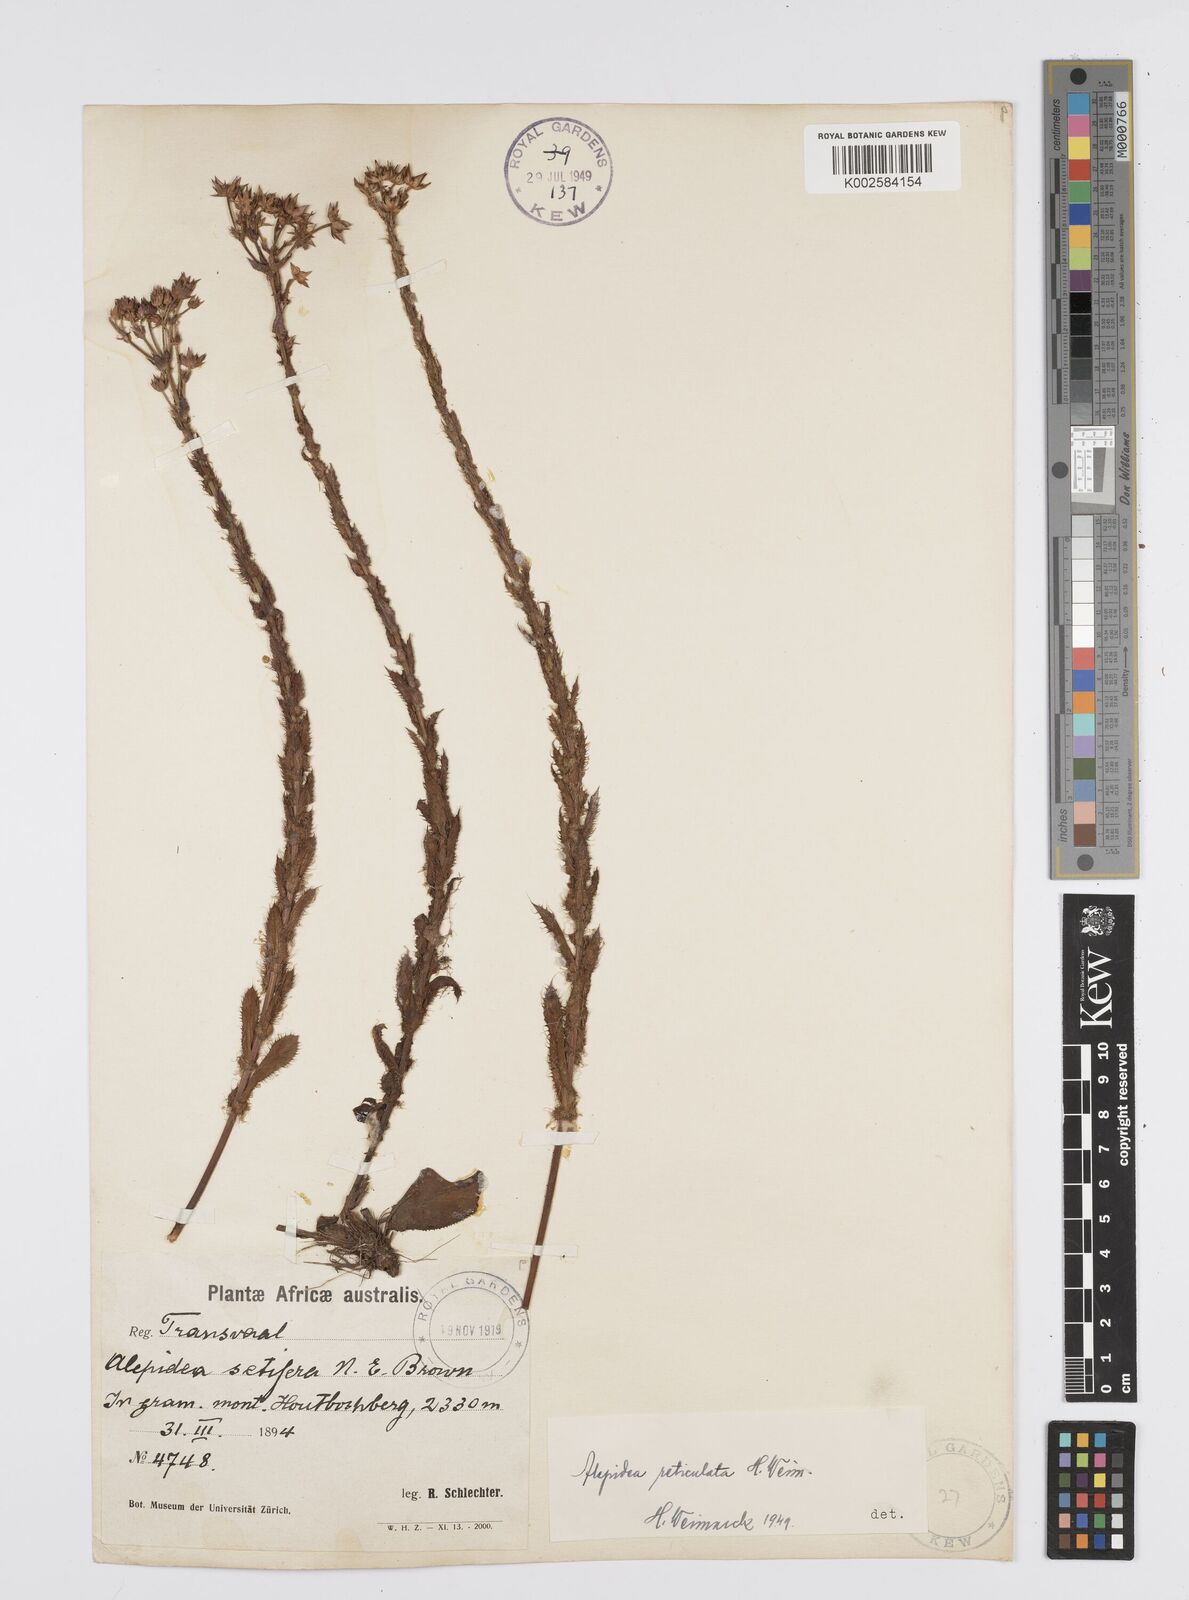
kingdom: Plantae
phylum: Tracheophyta
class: Magnoliopsida
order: Apiales
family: Apiaceae
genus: Alepidea
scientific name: Alepidea setifera
